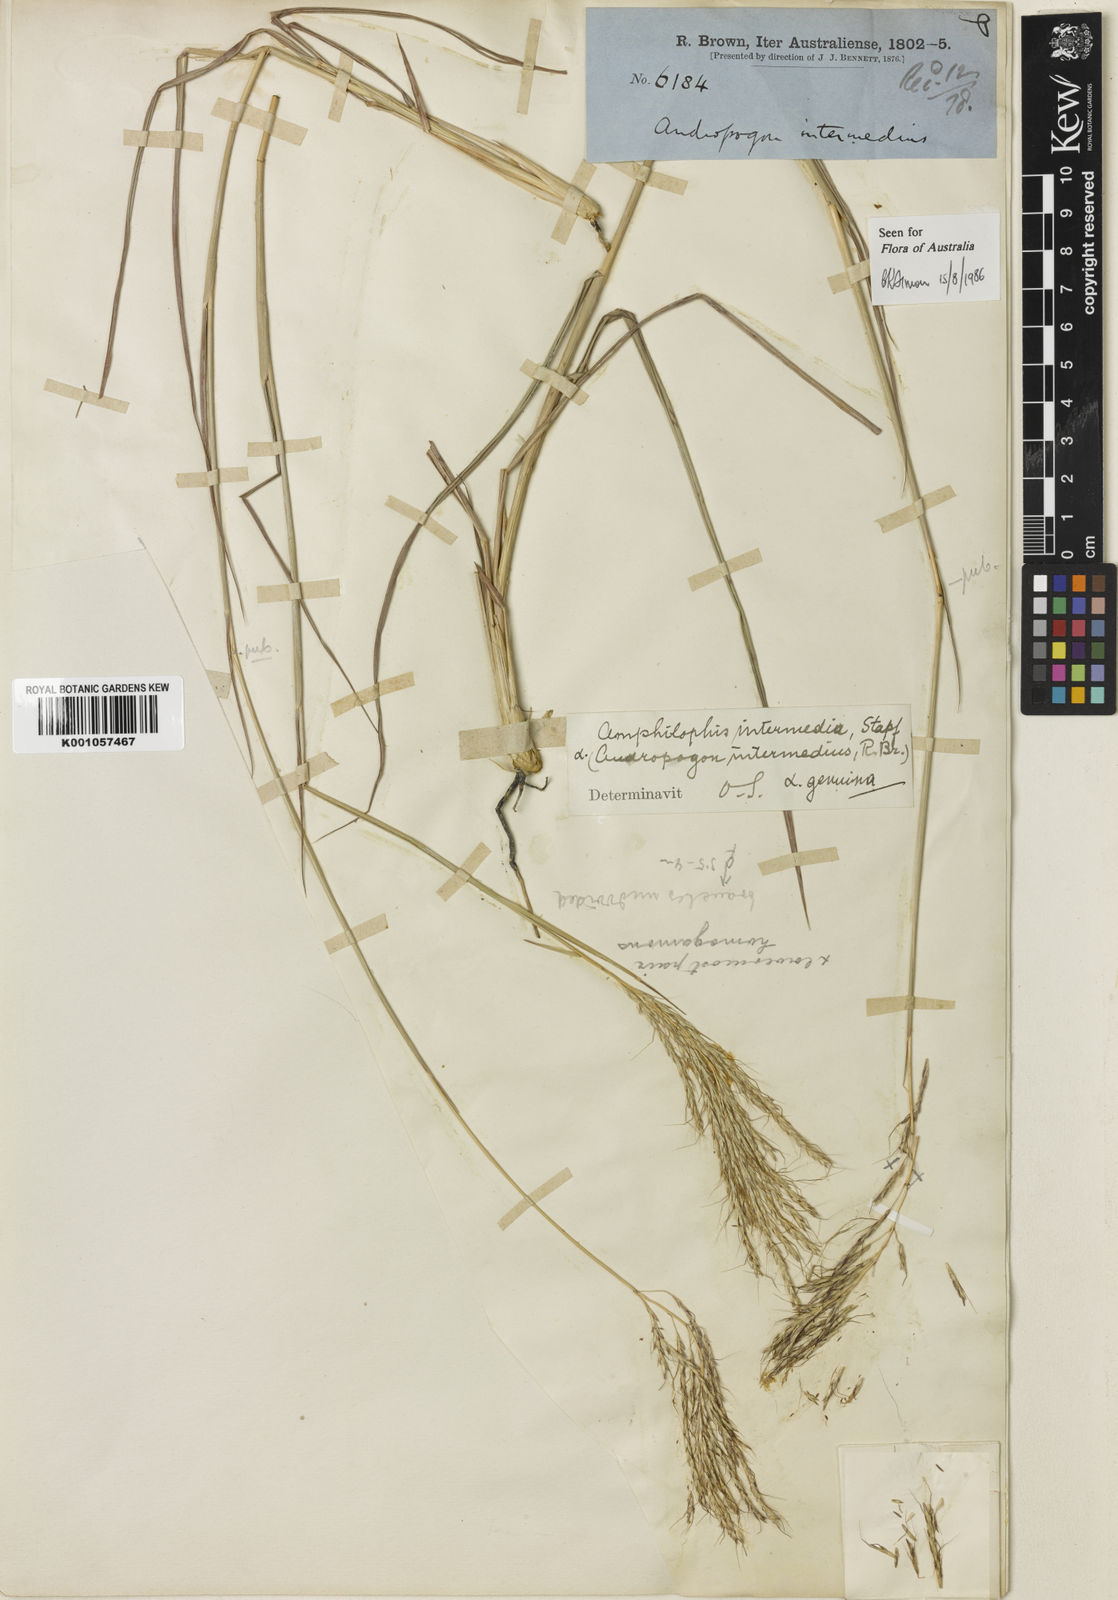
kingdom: Plantae
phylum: Tracheophyta
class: Liliopsida
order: Poales
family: Poaceae
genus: Bothriochloa
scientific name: Bothriochloa bladhii
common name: Caucasian bluestem
